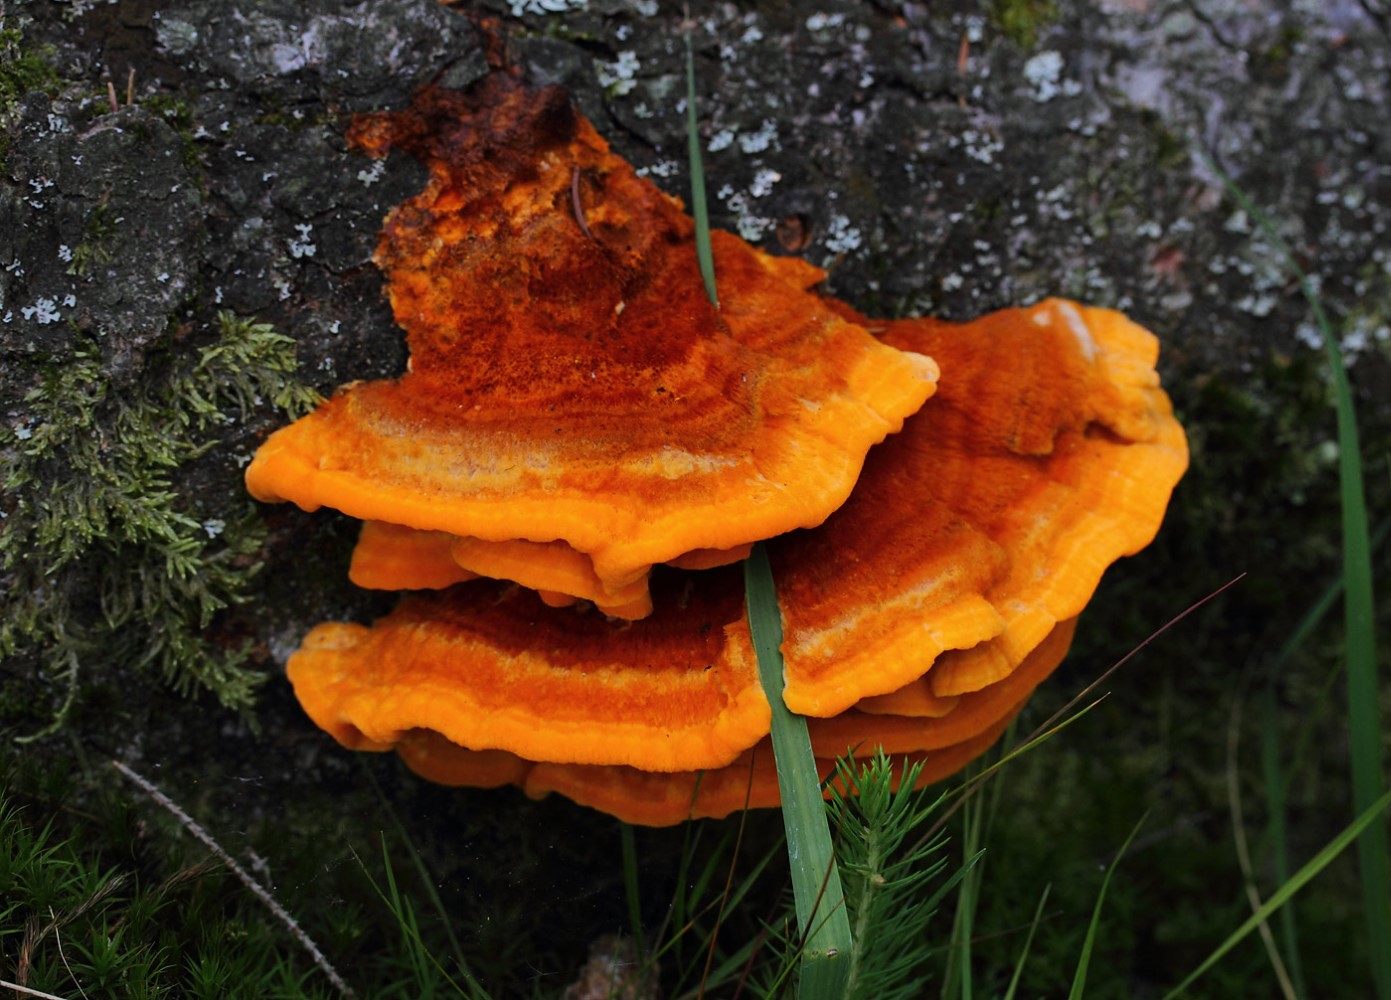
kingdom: Fungi
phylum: Basidiomycota
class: Agaricomycetes
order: Polyporales
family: Pycnoporellaceae
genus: Pycnoporellus
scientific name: Pycnoporellus fulgens
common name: flammeporesvamp
